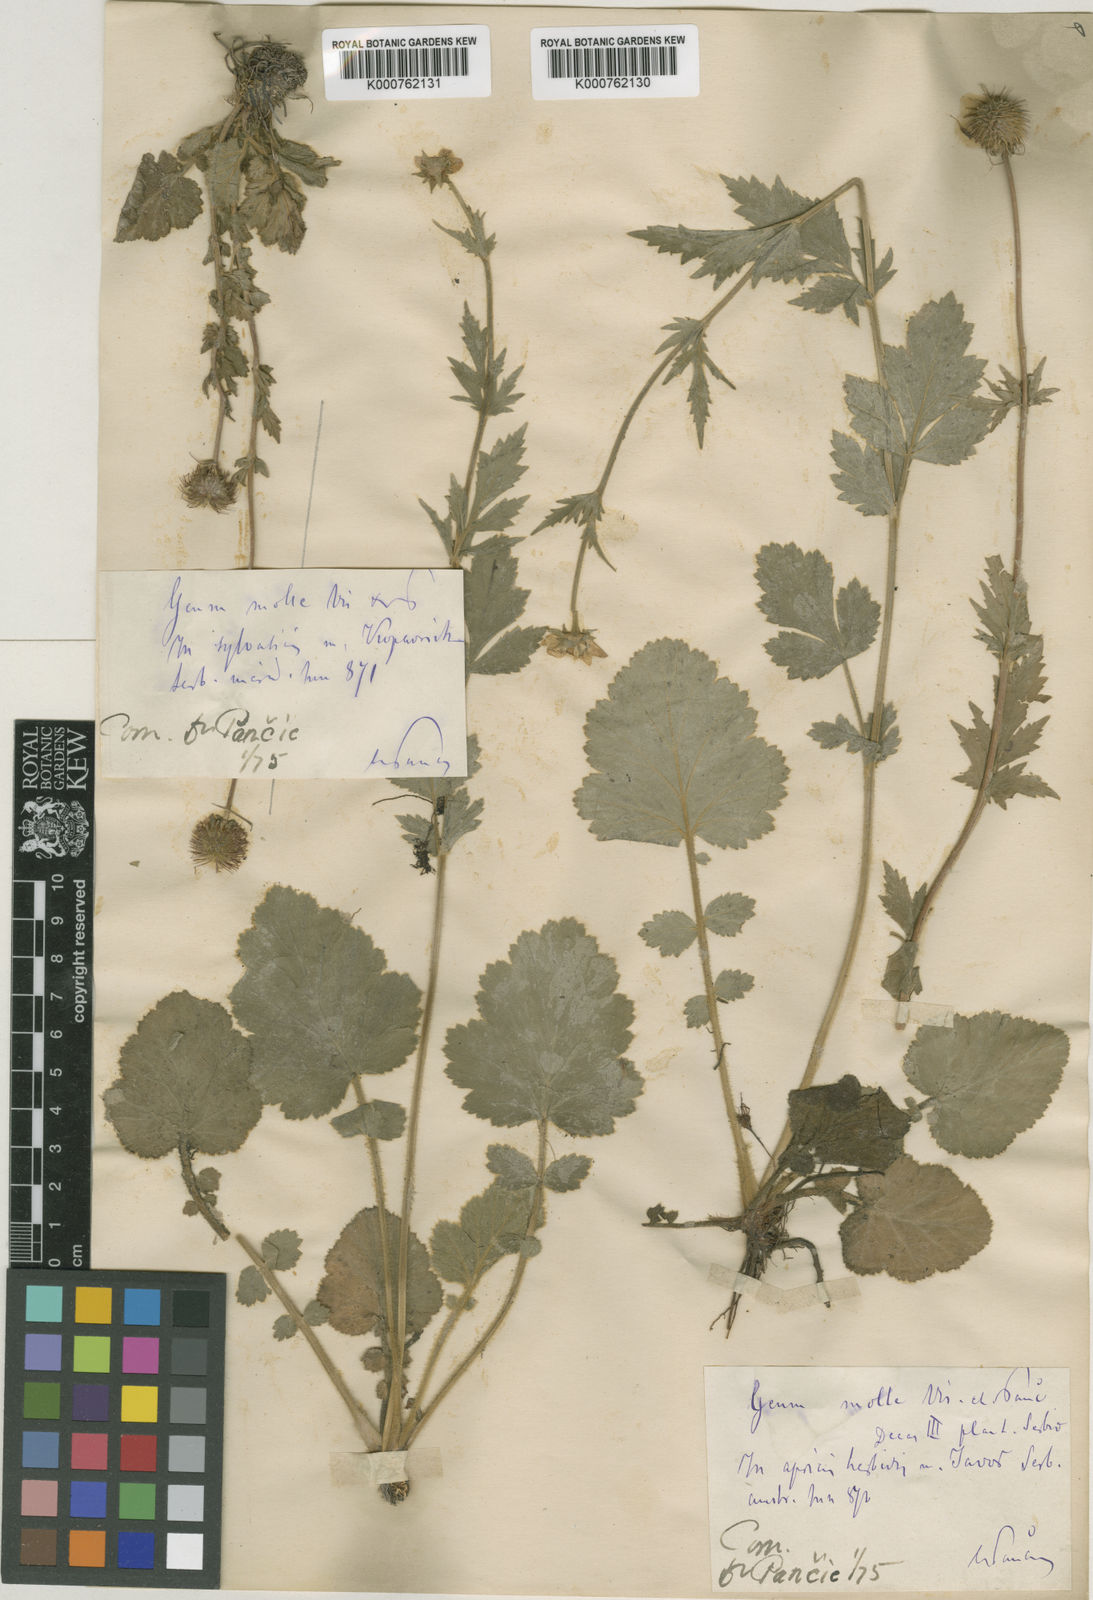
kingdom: Plantae
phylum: Tracheophyta
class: Magnoliopsida
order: Rosales
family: Rosaceae
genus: Geum
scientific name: Geum molle
